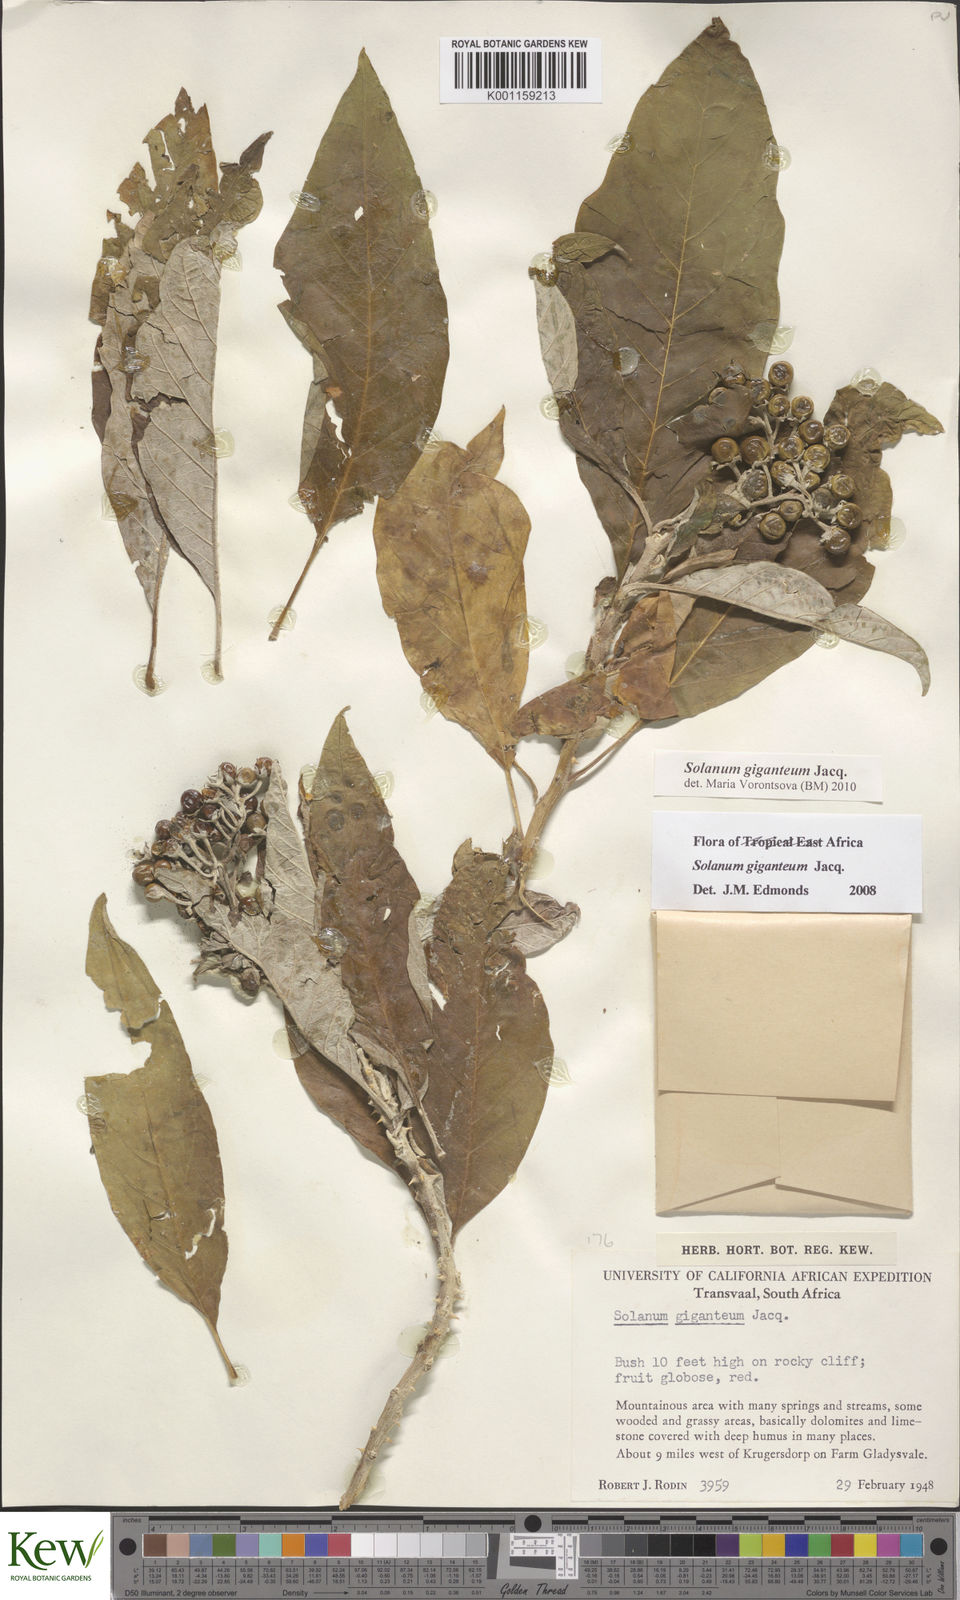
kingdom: Plantae
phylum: Tracheophyta
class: Magnoliopsida
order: Solanales
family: Solanaceae
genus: Solanum
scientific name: Solanum giganteum
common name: Healing-leaf-tree
